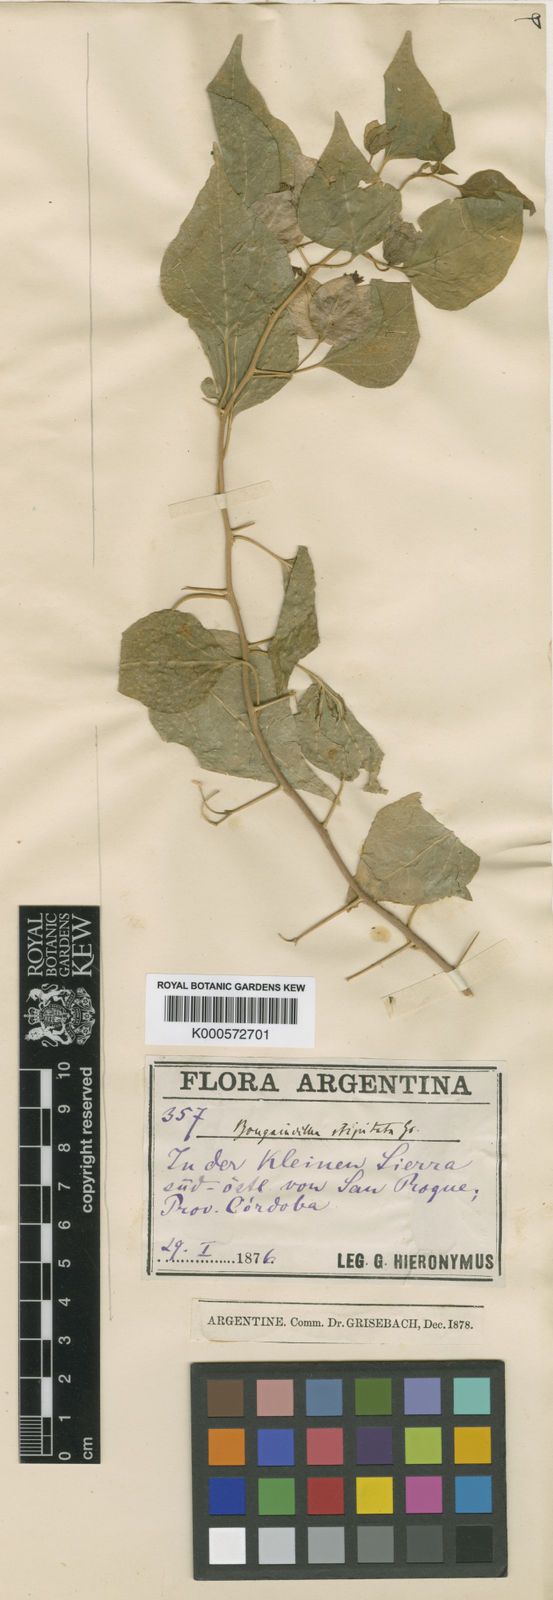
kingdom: Plantae
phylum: Tracheophyta
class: Magnoliopsida
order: Caryophyllales
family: Nyctaginaceae
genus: Bougainvillea
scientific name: Bougainvillea stipitata
